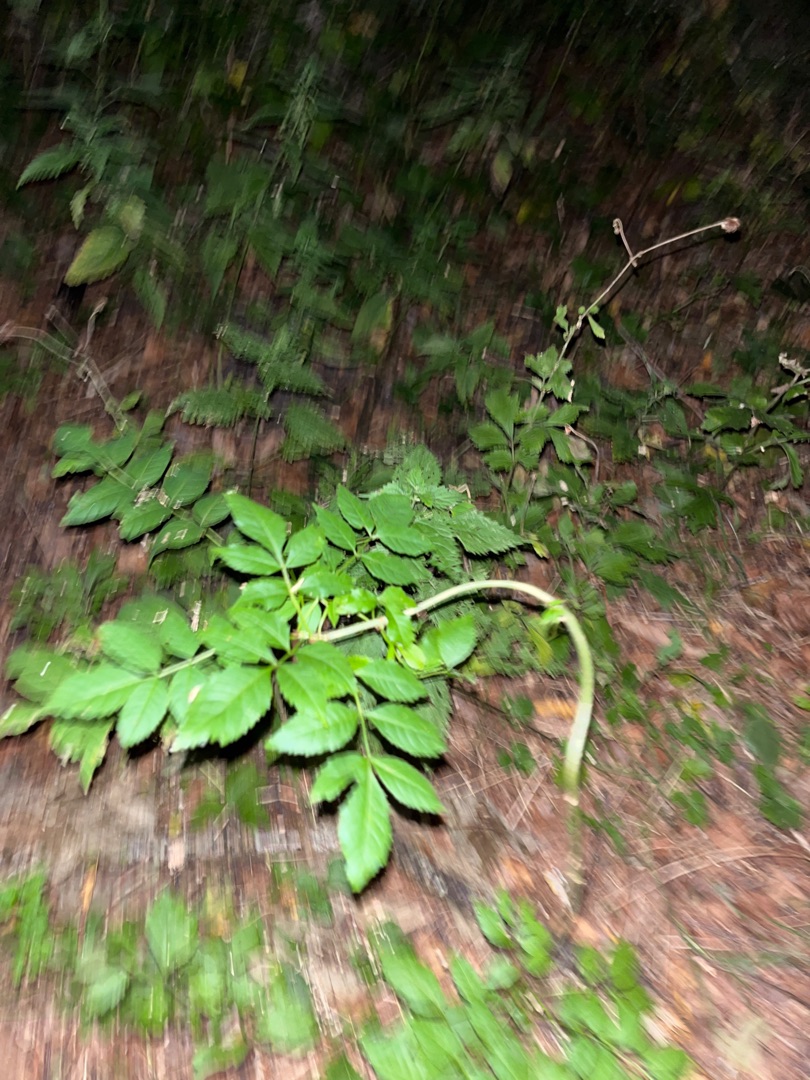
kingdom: Plantae
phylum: Tracheophyta
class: Magnoliopsida
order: Lamiales
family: Oleaceae
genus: Fraxinus
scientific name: Fraxinus excelsior
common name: Ask
